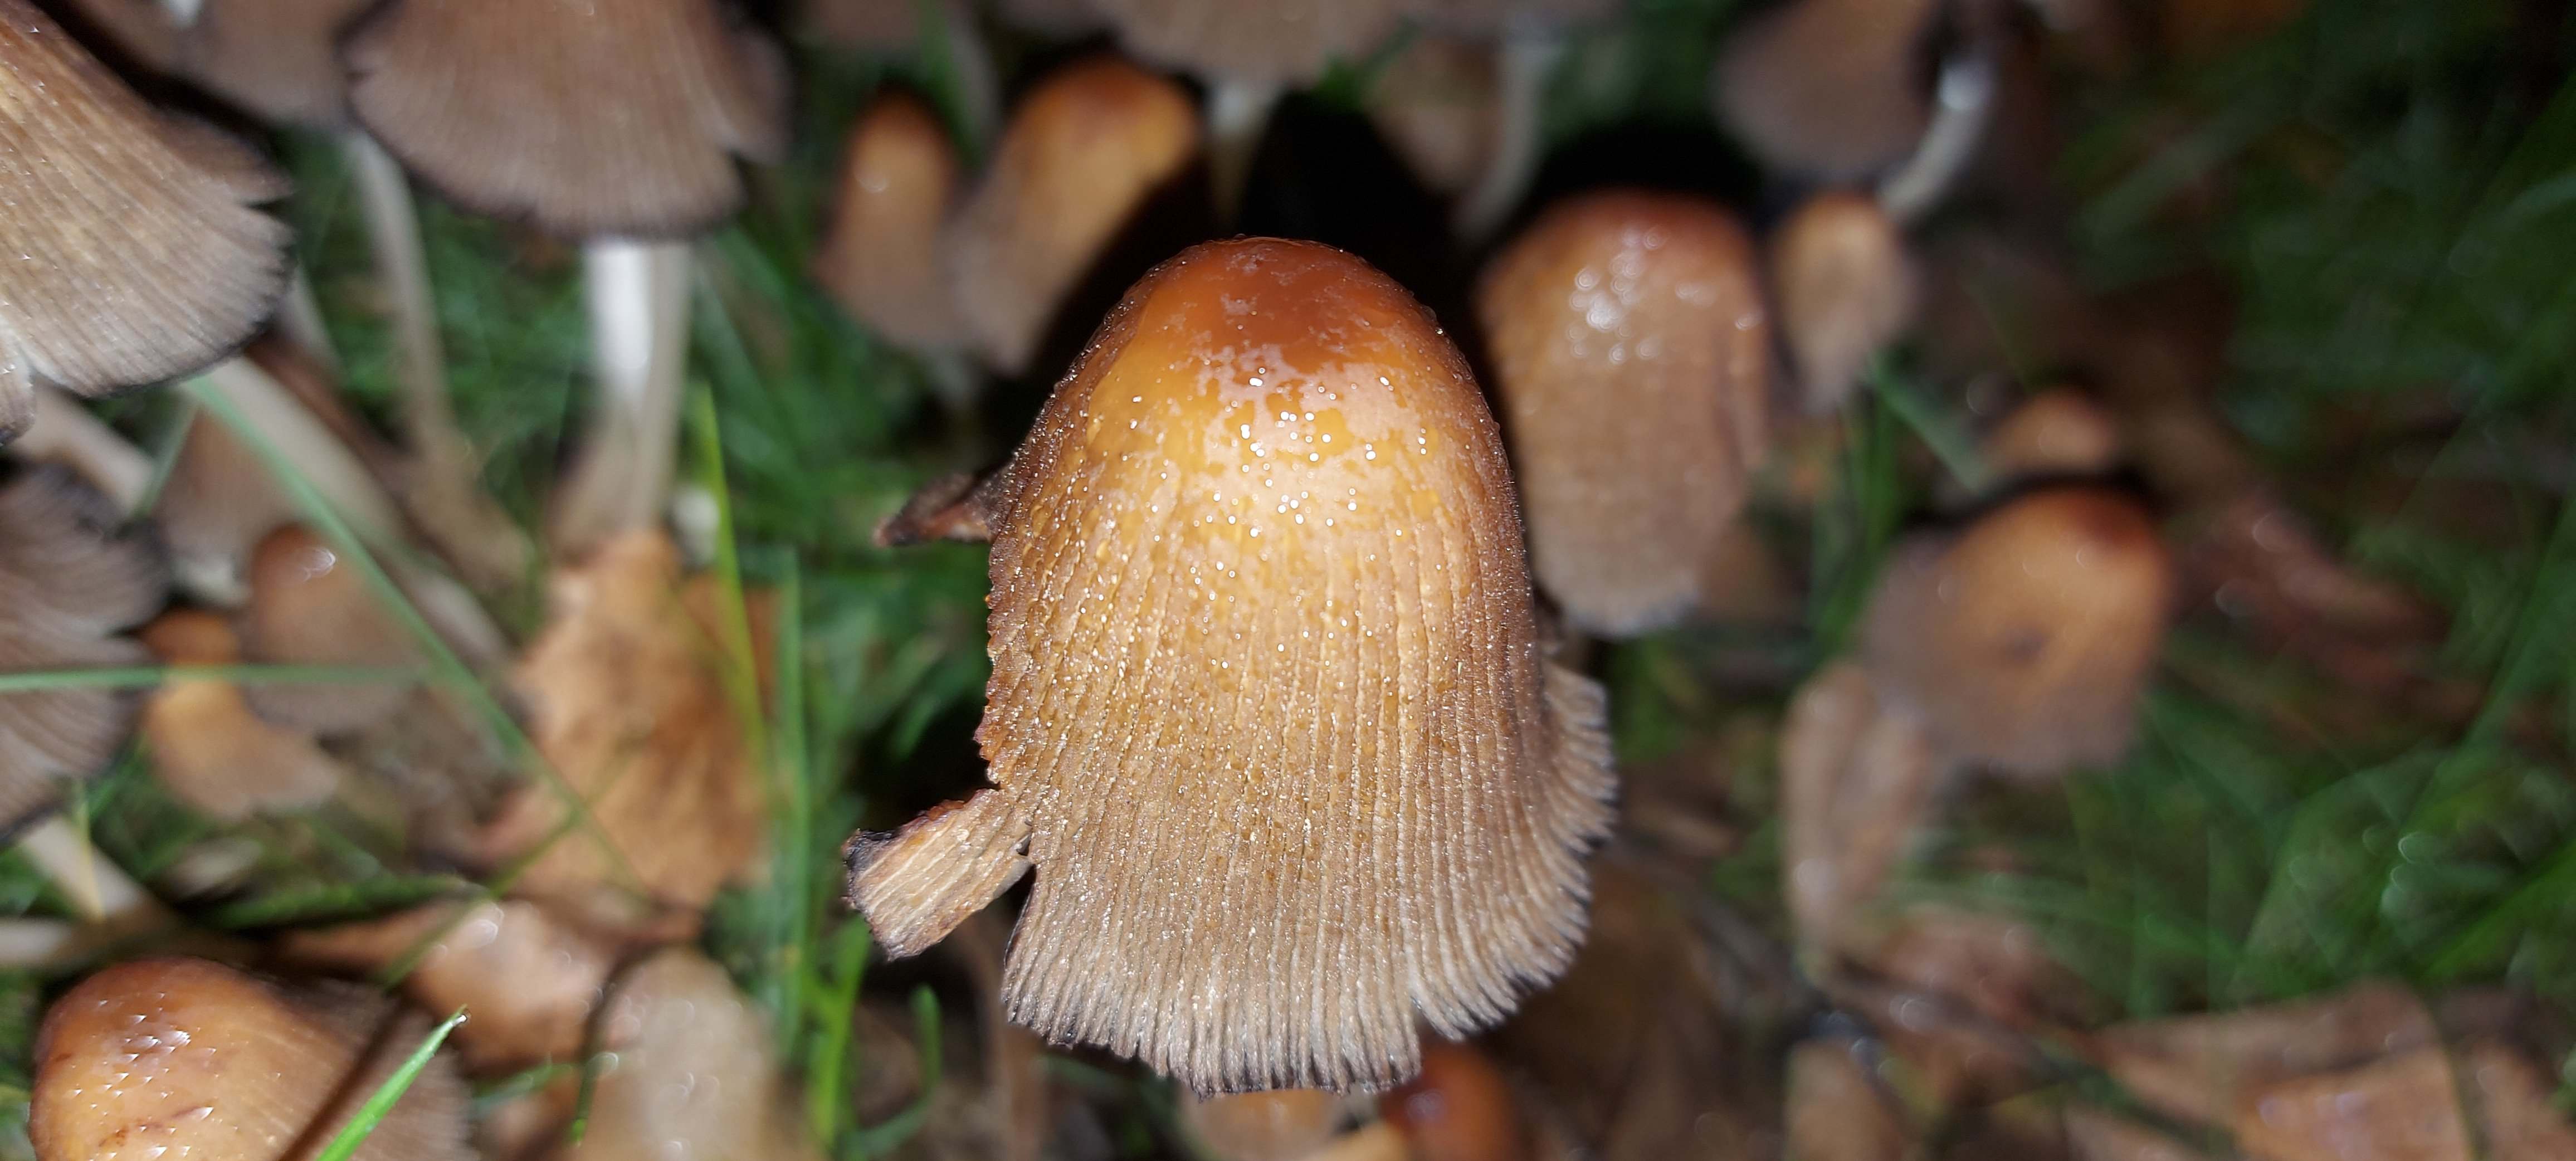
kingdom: Fungi
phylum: Basidiomycota
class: Agaricomycetes
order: Agaricales
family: Psathyrellaceae
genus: Coprinellus
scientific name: Coprinellus micaceus
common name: glimmer-blækhat
